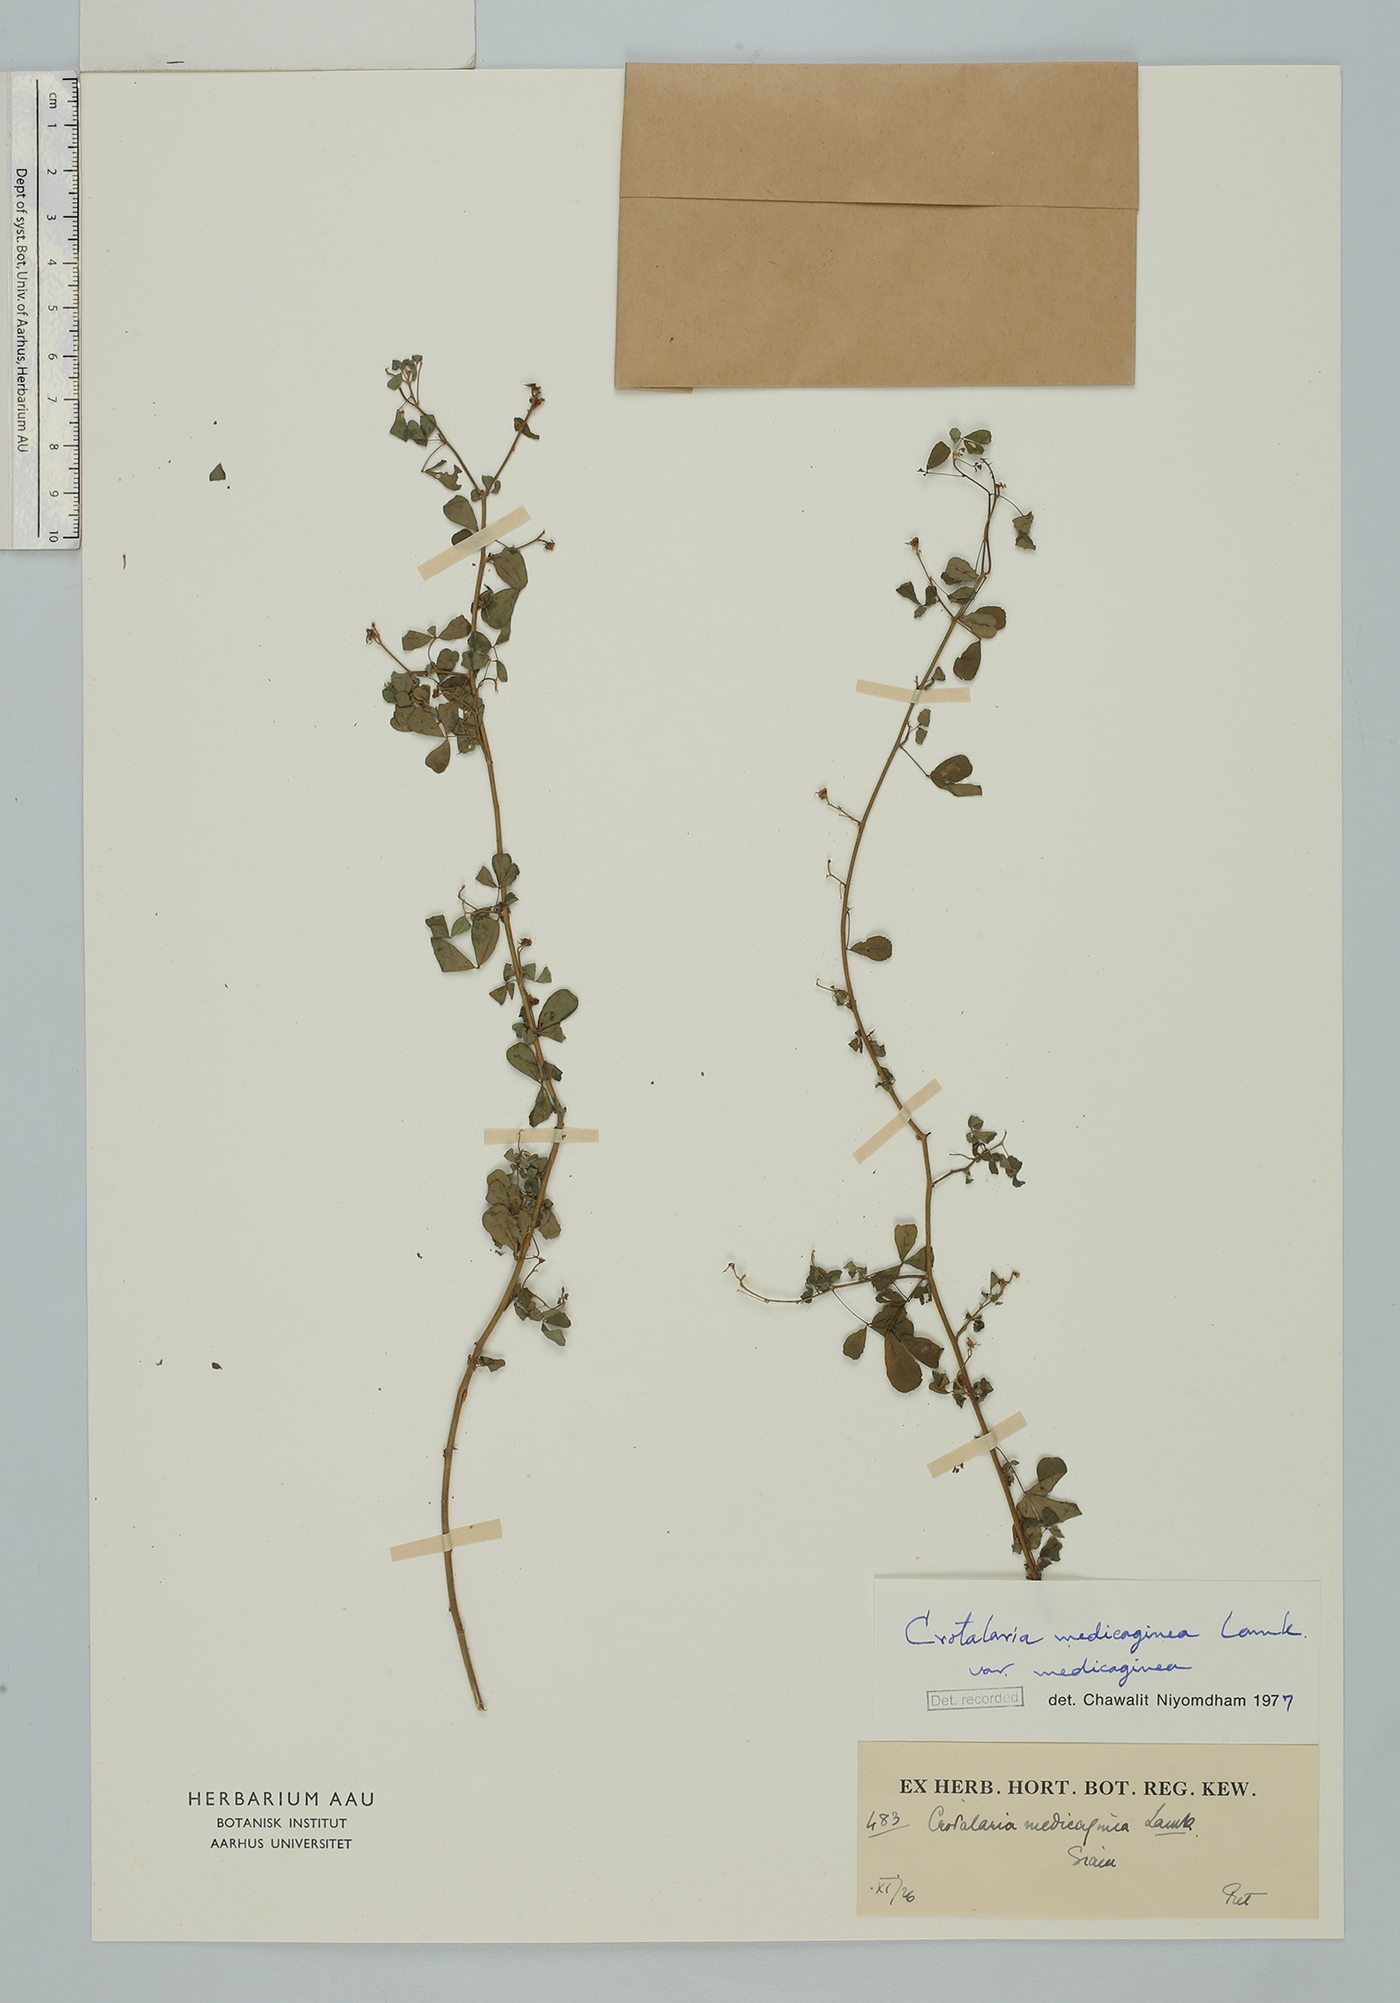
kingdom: Plantae
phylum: Tracheophyta
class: Magnoliopsida
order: Fabales
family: Fabaceae
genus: Crotalaria
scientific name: Crotalaria medicaginea
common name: Trefoil rattlepod
